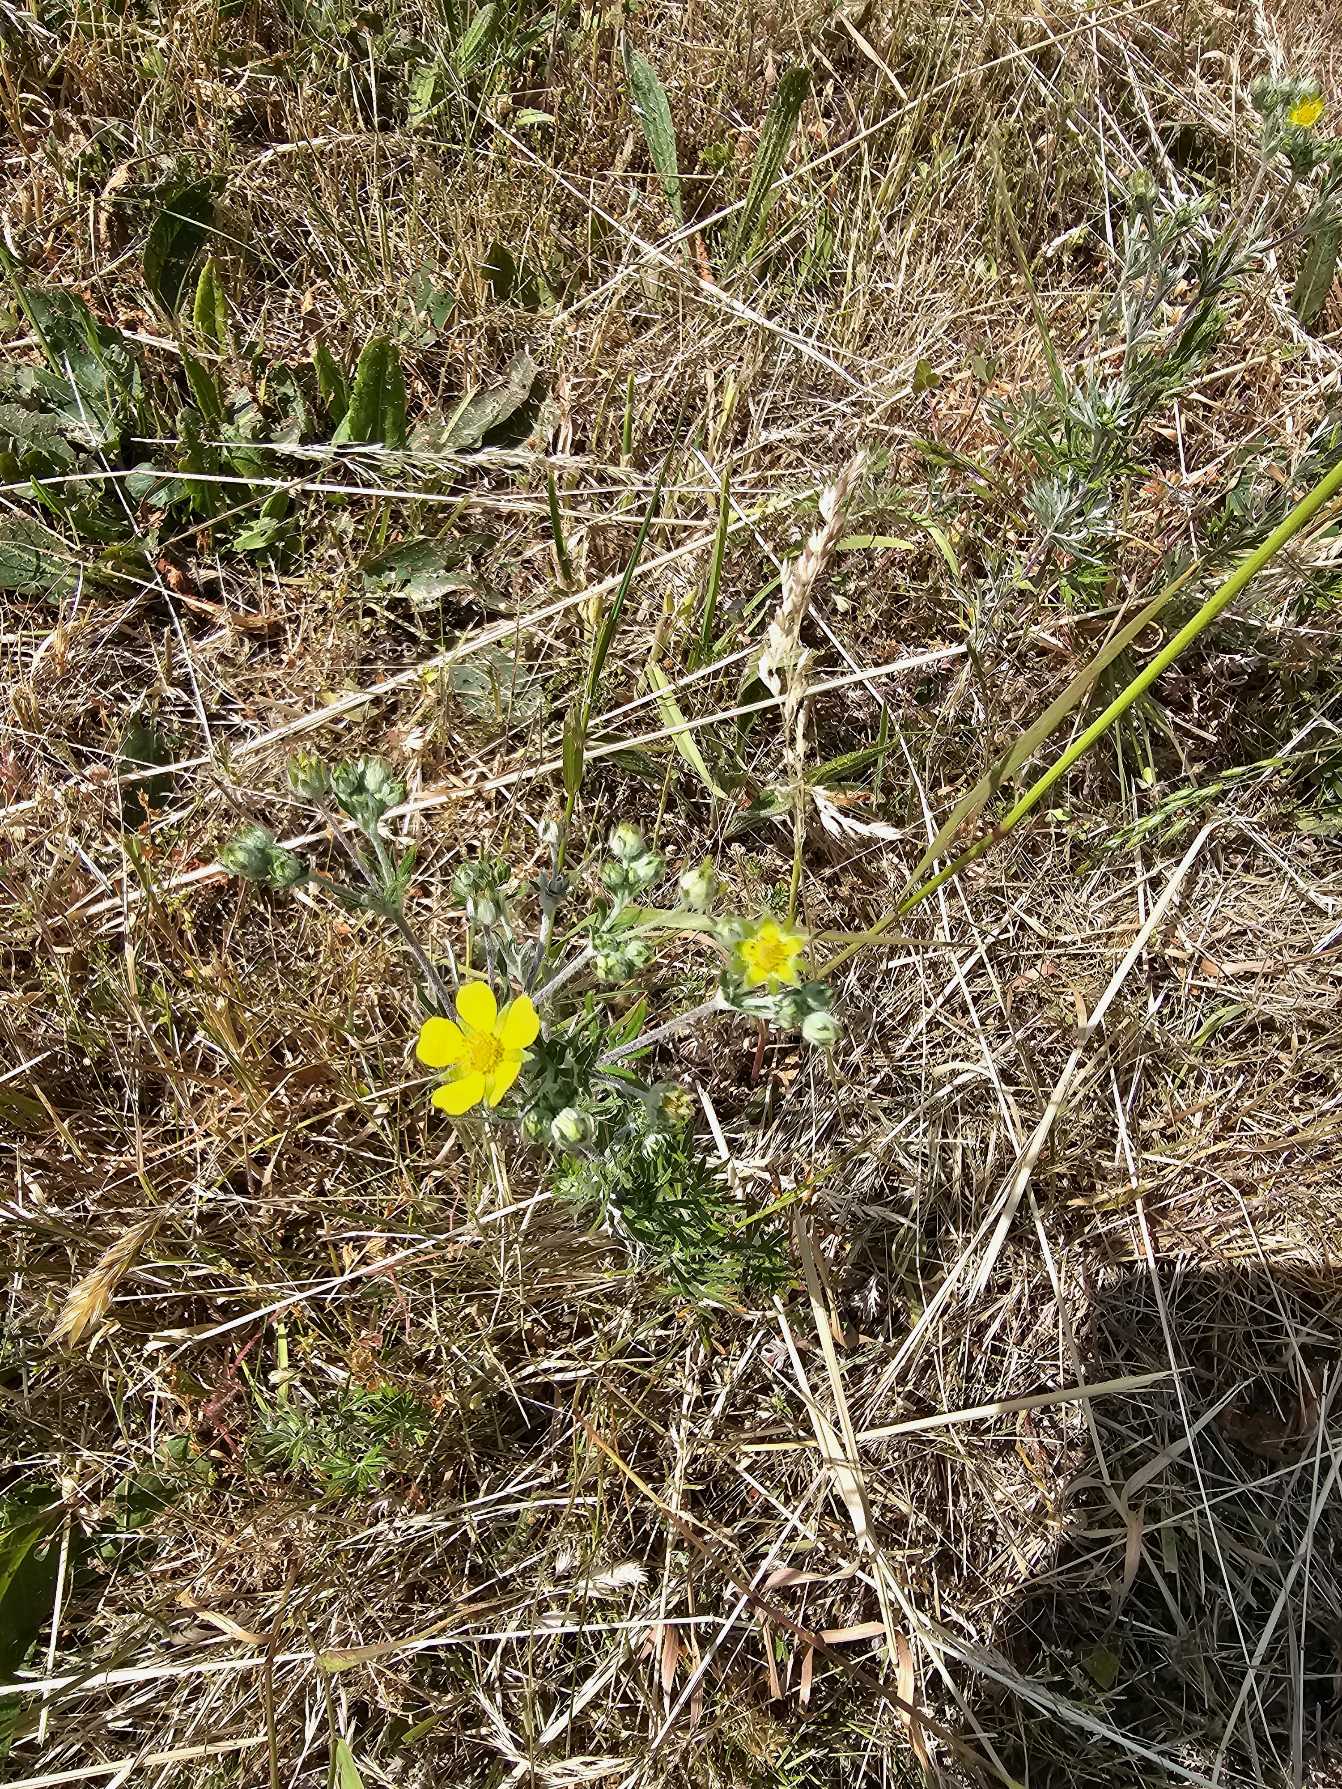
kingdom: Plantae
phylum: Tracheophyta
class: Magnoliopsida
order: Rosales
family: Rosaceae
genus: Potentilla
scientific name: Potentilla argentea
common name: Sølv-potentil
